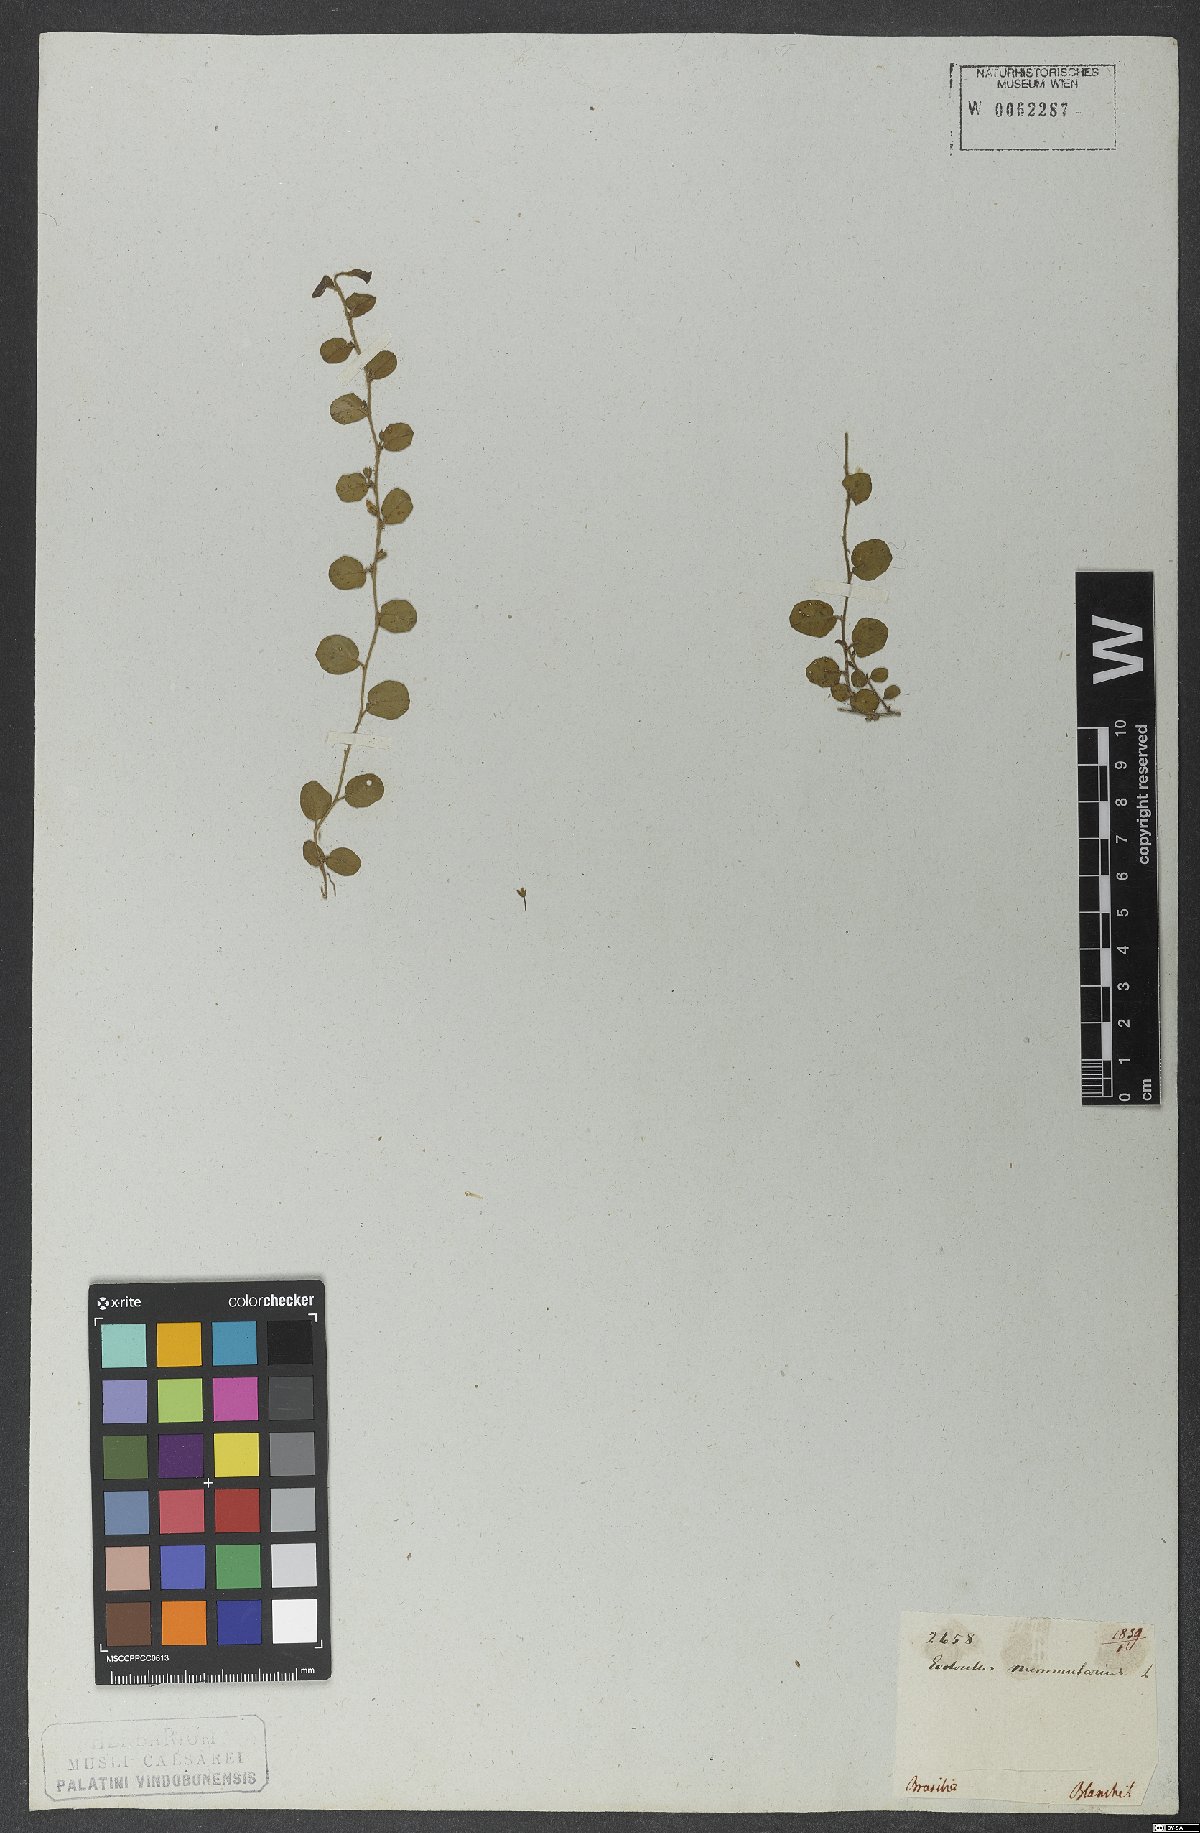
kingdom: Plantae
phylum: Tracheophyta
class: Magnoliopsida
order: Solanales
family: Convolvulaceae
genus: Evolvulus
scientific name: Evolvulus nummularius
